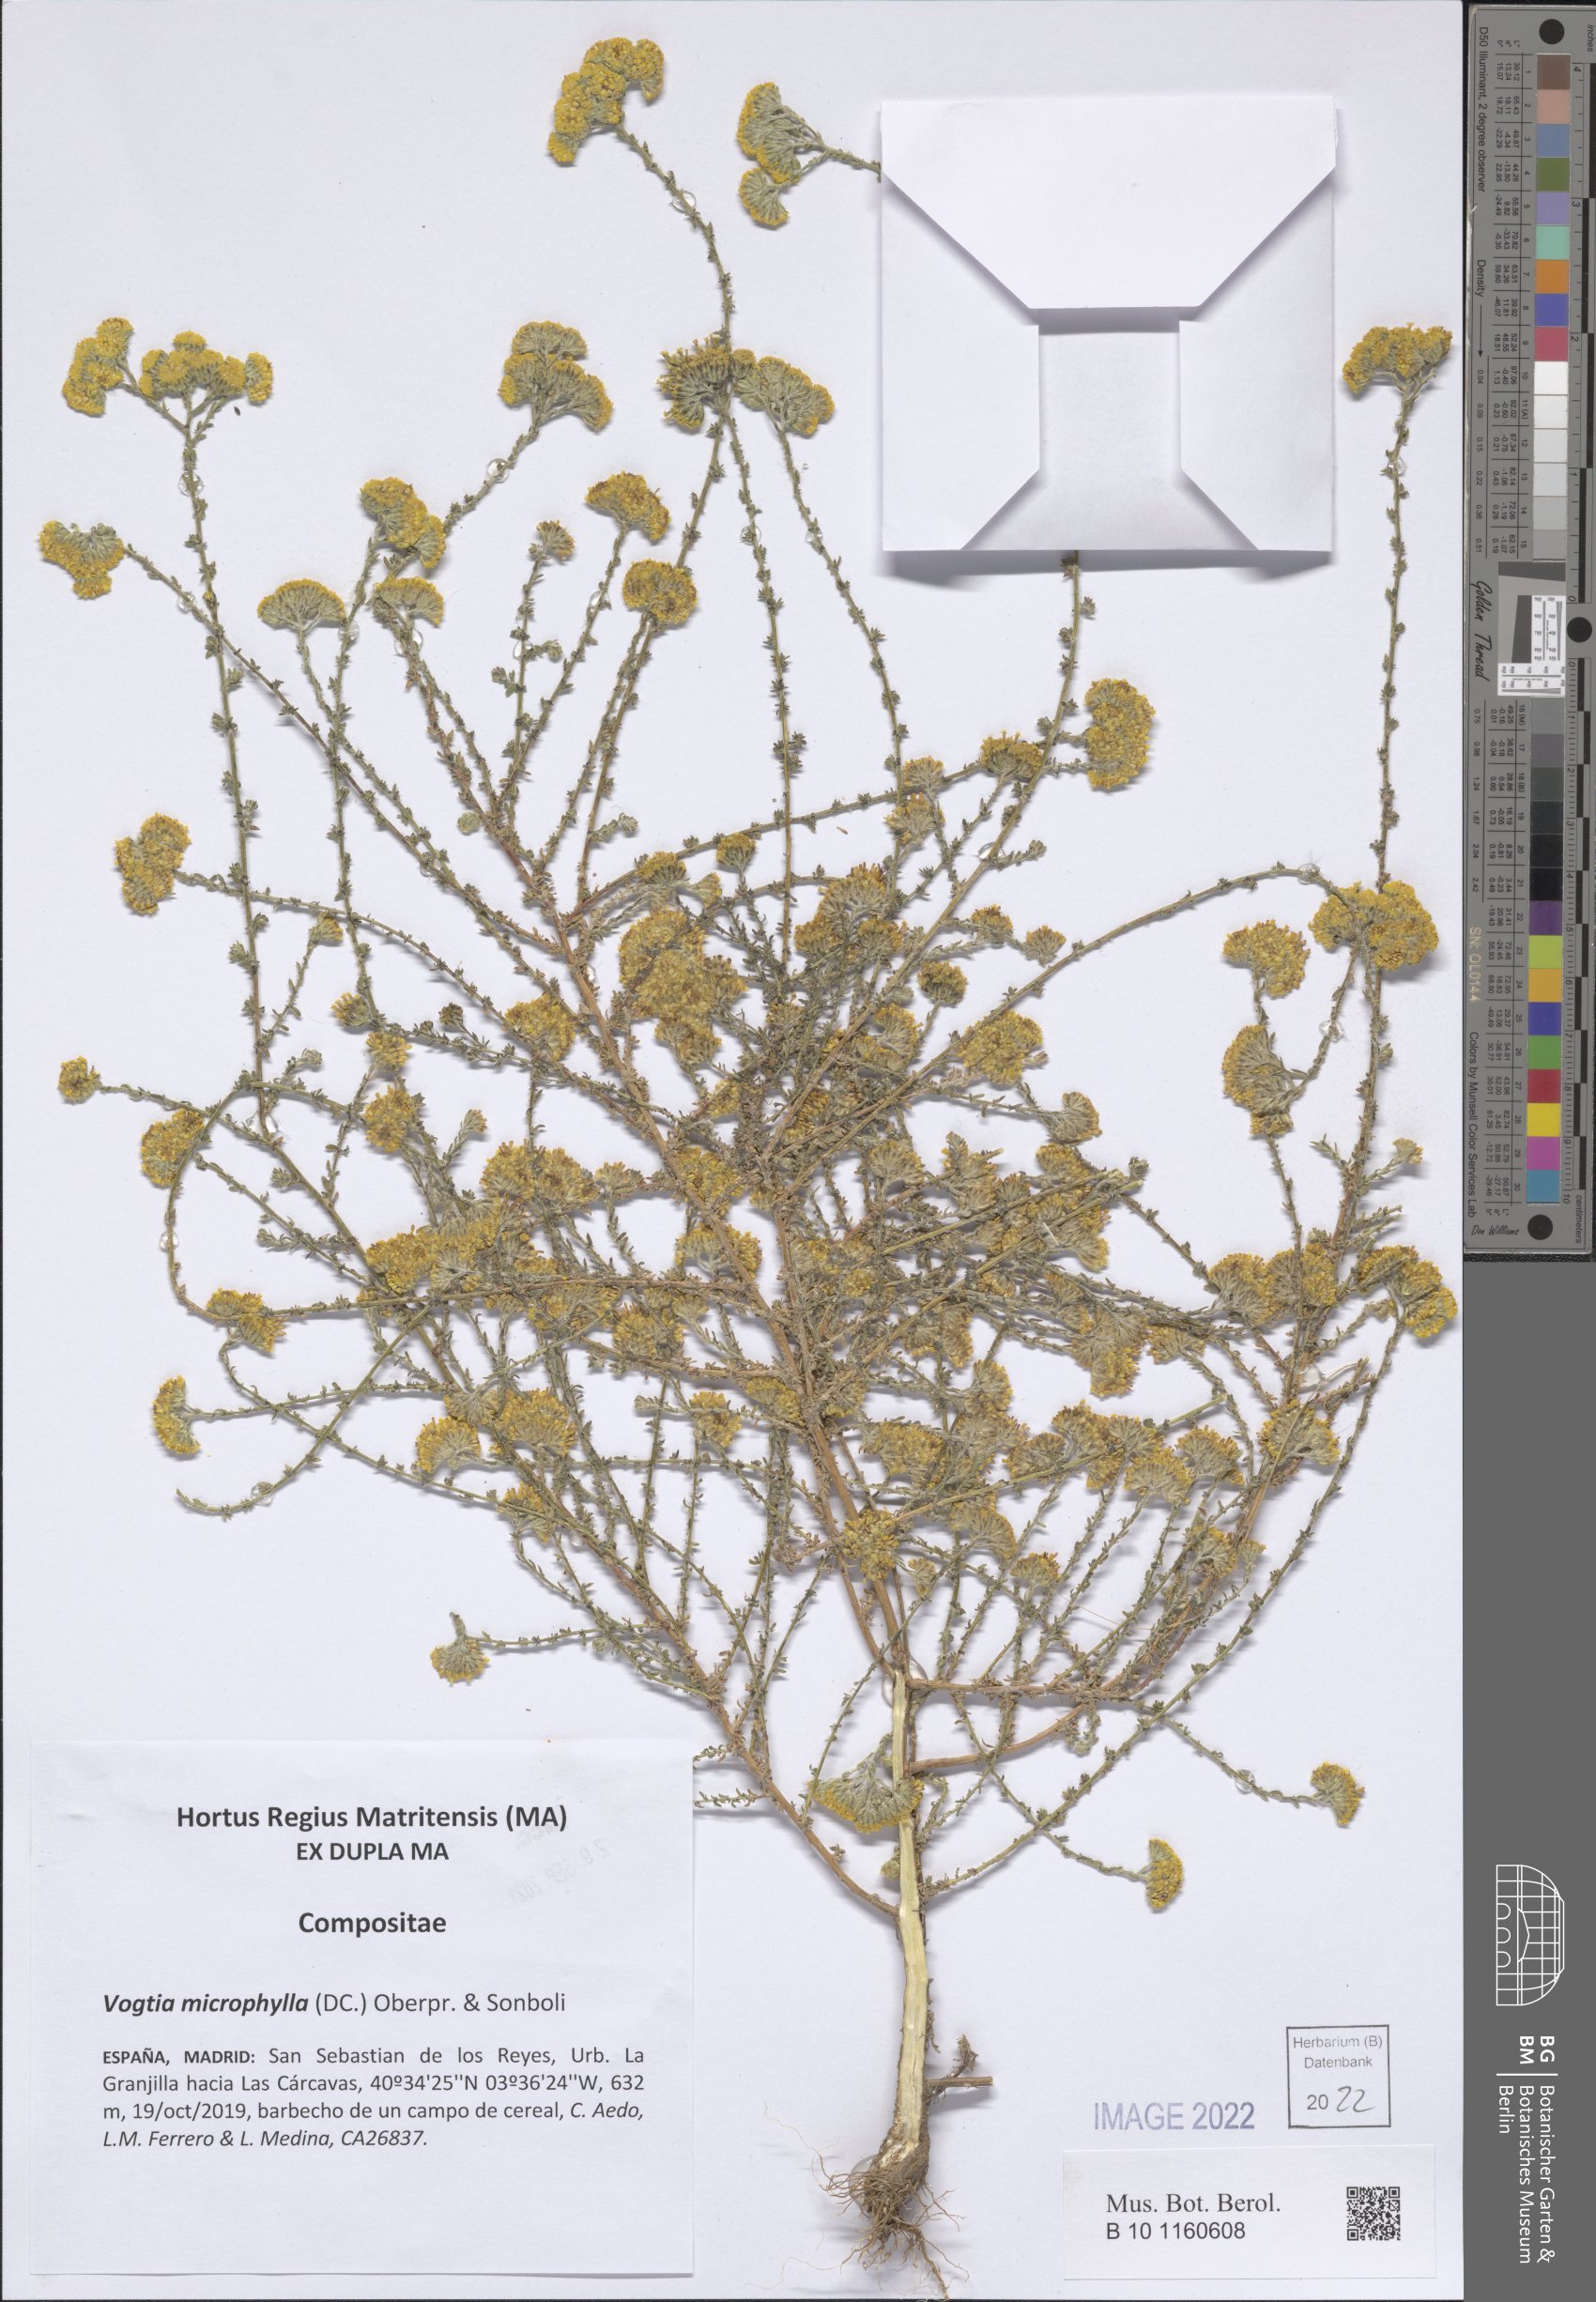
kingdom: Plantae
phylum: Tracheophyta
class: Magnoliopsida
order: Asterales
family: Asteraceae
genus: Vogtia
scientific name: Vogtia microphylla
